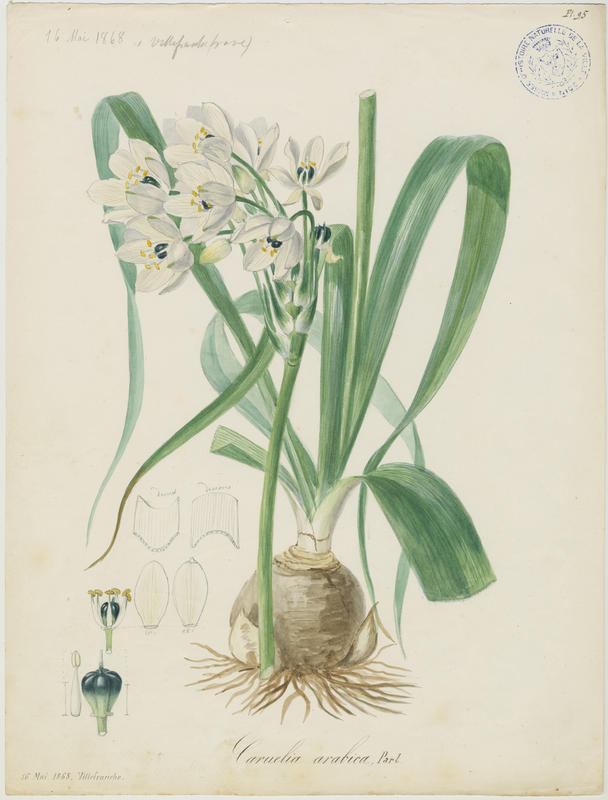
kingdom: Plantae
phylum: Tracheophyta
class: Liliopsida
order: Asparagales
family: Asparagaceae
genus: Ornithogalum
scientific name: Ornithogalum arabicum
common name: Arabian starflower
